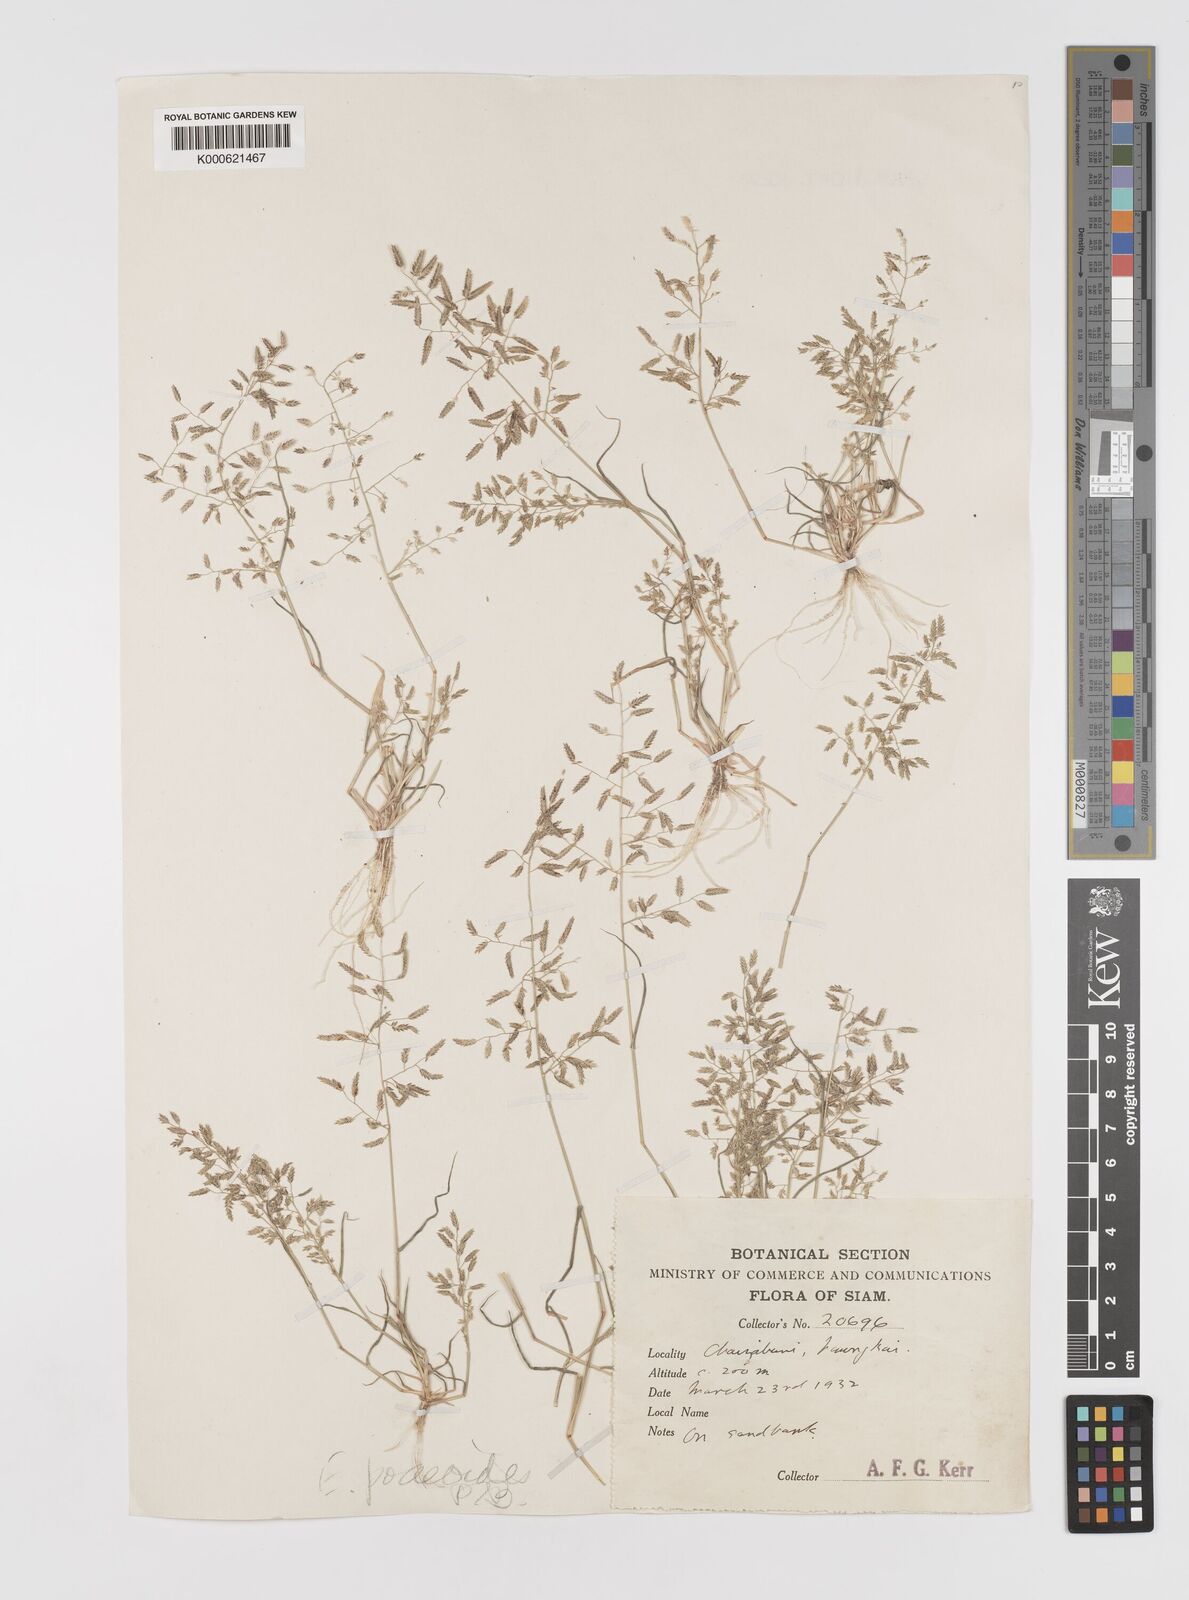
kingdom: Plantae
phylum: Tracheophyta
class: Liliopsida
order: Poales
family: Poaceae
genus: Eragrostis
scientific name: Eragrostis minor
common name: Small love-grass
